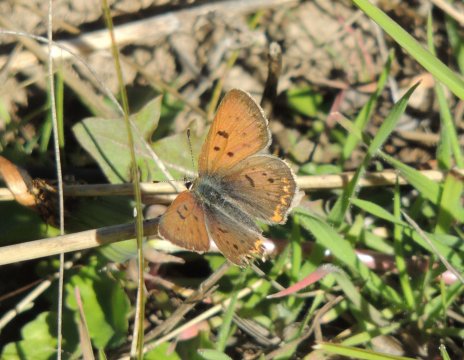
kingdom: Animalia
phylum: Arthropoda
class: Insecta
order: Lepidoptera
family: Sesiidae
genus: Sesia
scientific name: Sesia Lycaena helloides
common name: Purplish Copper
